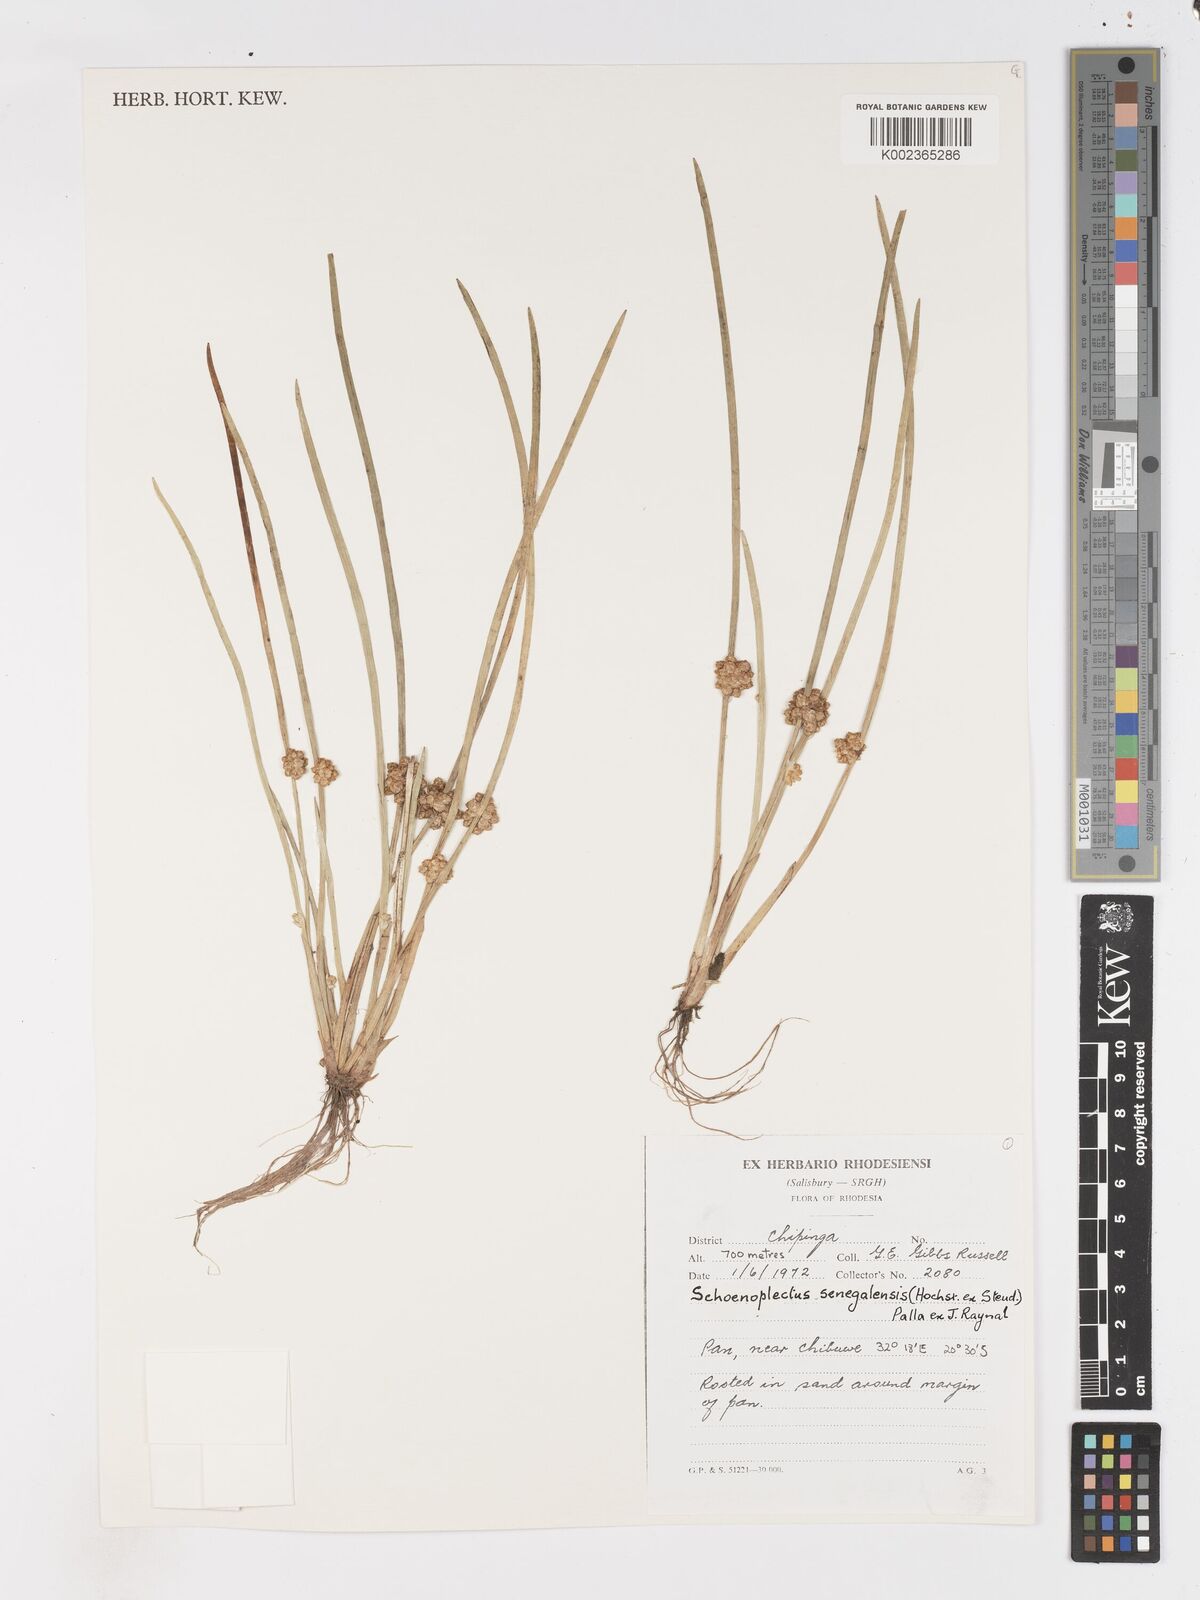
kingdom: Plantae
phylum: Tracheophyta
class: Liliopsida
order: Poales
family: Cyperaceae
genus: Schoenoplectiella
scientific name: Schoenoplectiella senegalensis
